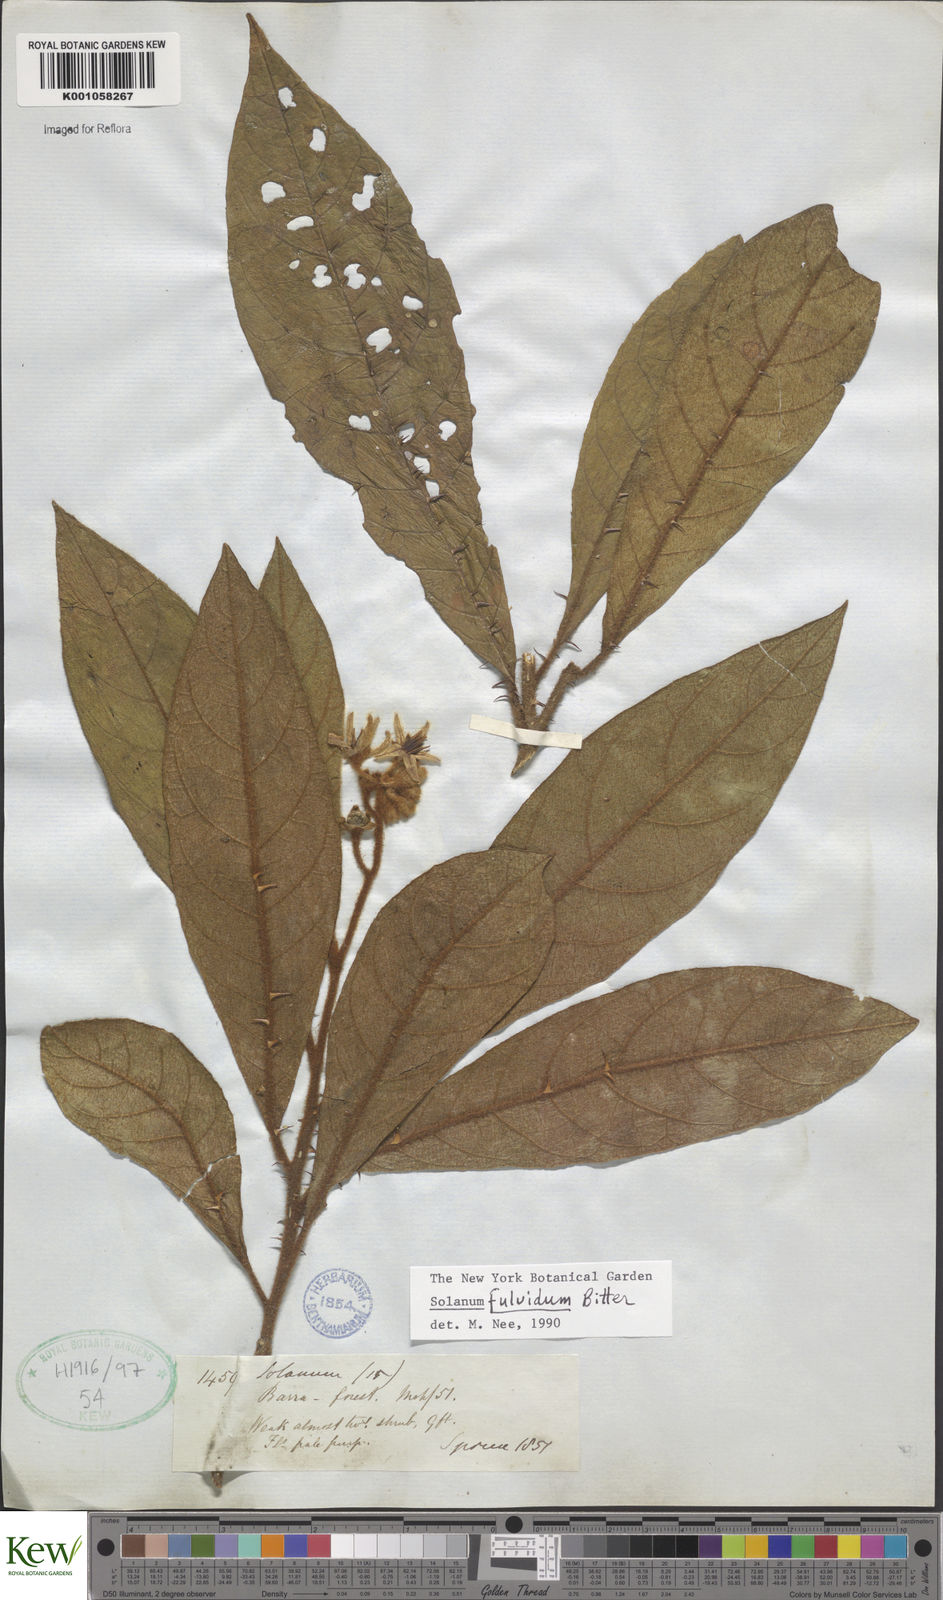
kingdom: Plantae
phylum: Tracheophyta
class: Magnoliopsida
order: Solanales
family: Solanaceae
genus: Solanum
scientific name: Solanum fulvidum
